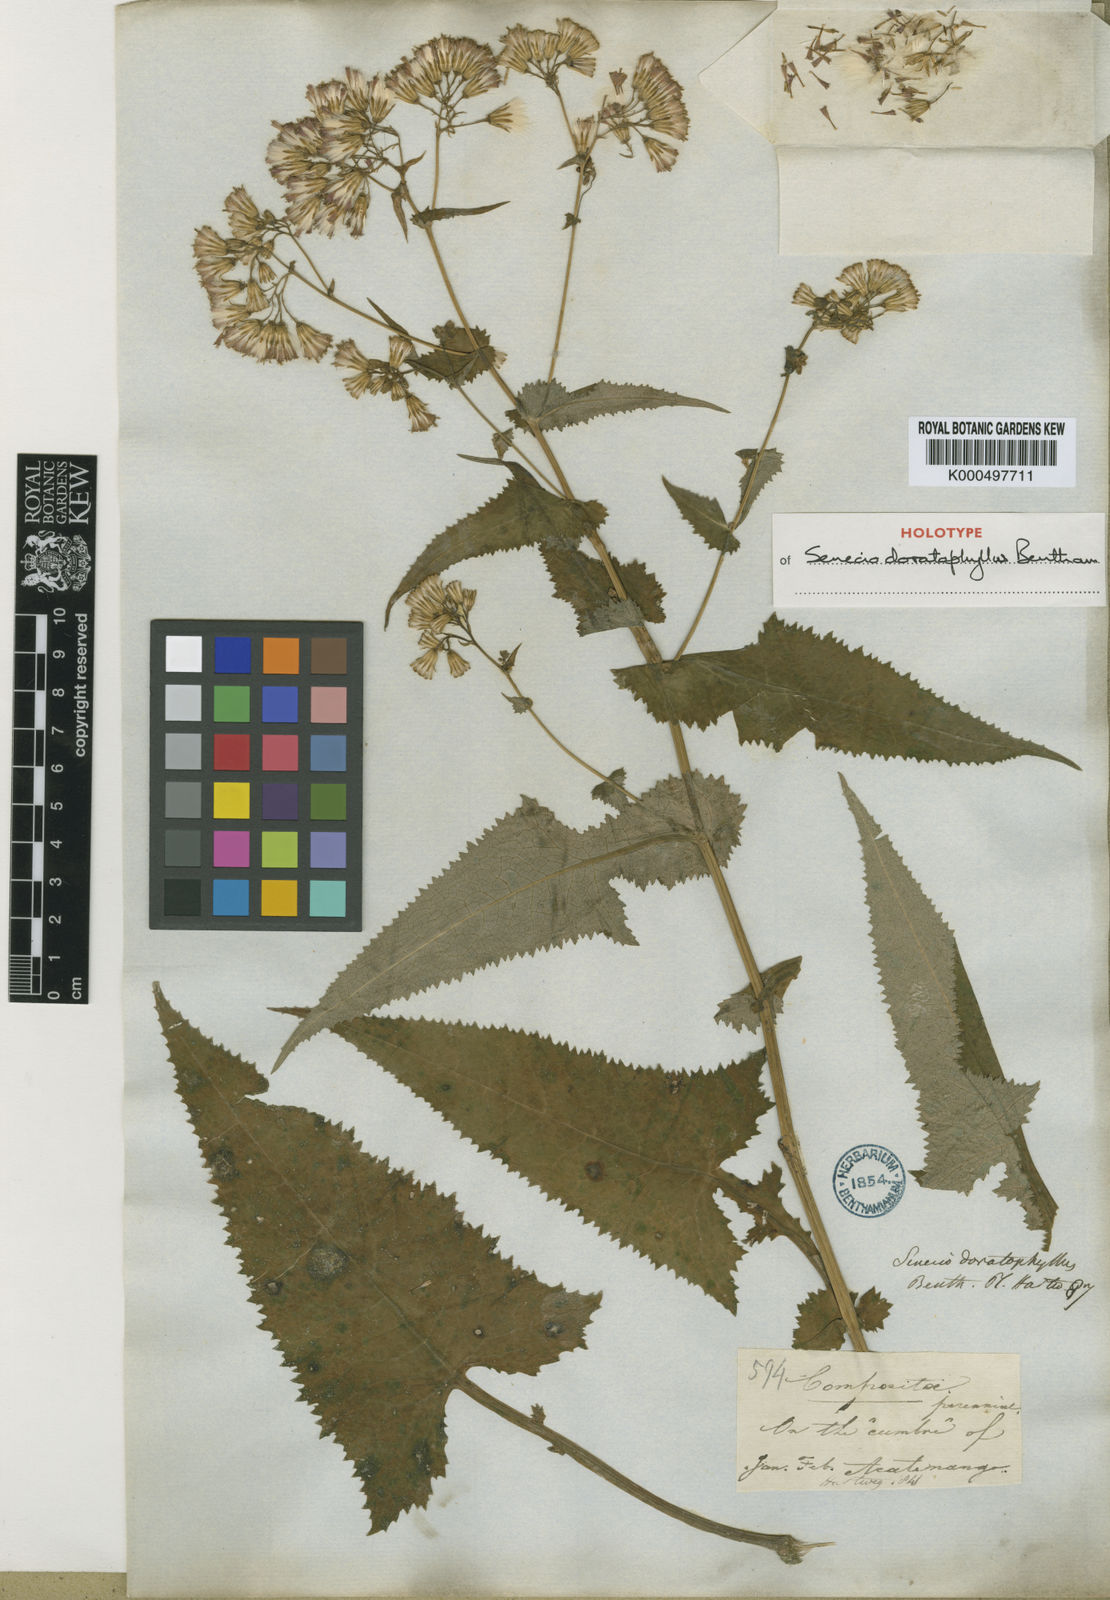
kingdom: Plantae
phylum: Tracheophyta
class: Magnoliopsida
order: Asterales
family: Asteraceae
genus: Senecio
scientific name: Senecio doratophyllus
